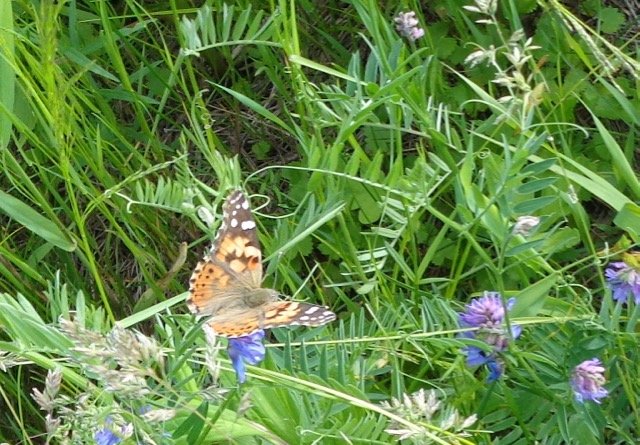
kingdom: Animalia
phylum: Arthropoda
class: Insecta
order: Lepidoptera
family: Nymphalidae
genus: Vanessa
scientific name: Vanessa cardui
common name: Painted Lady
